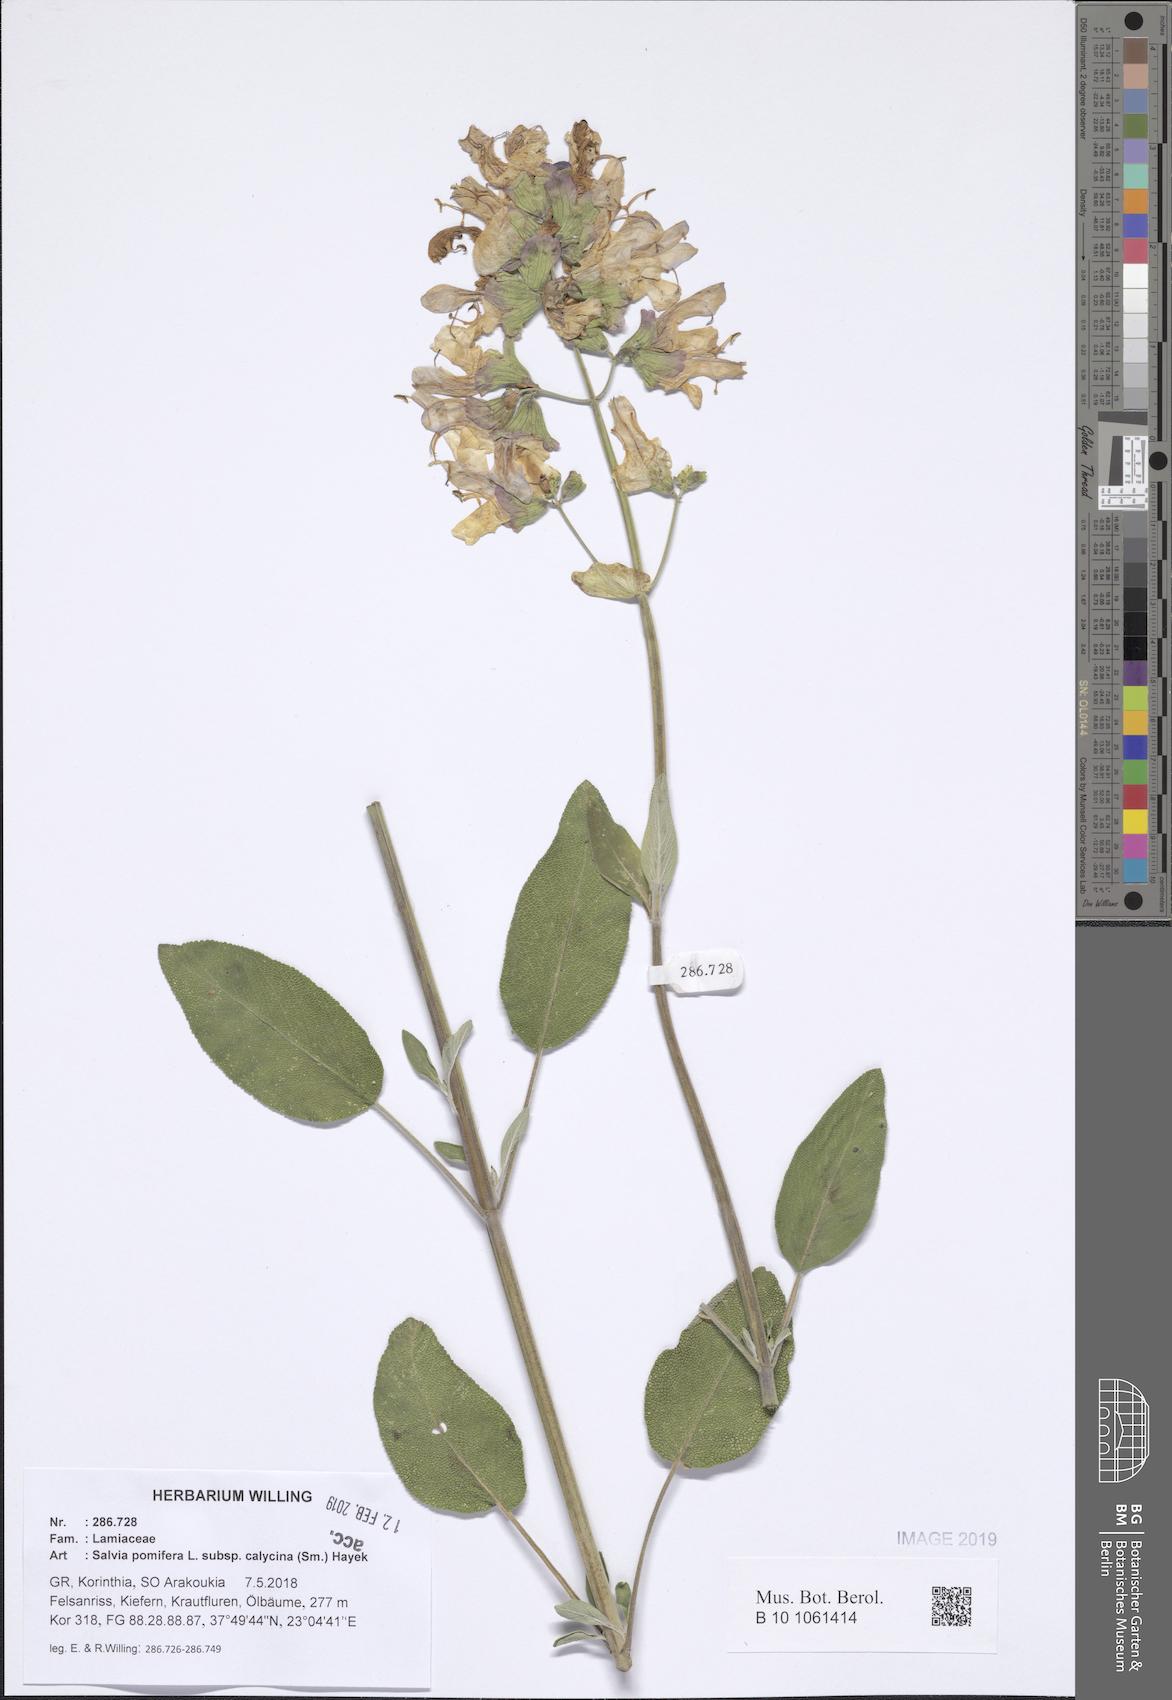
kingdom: Plantae
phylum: Tracheophyta
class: Magnoliopsida
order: Lamiales
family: Lamiaceae
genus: Salvia
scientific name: Salvia pomifera
